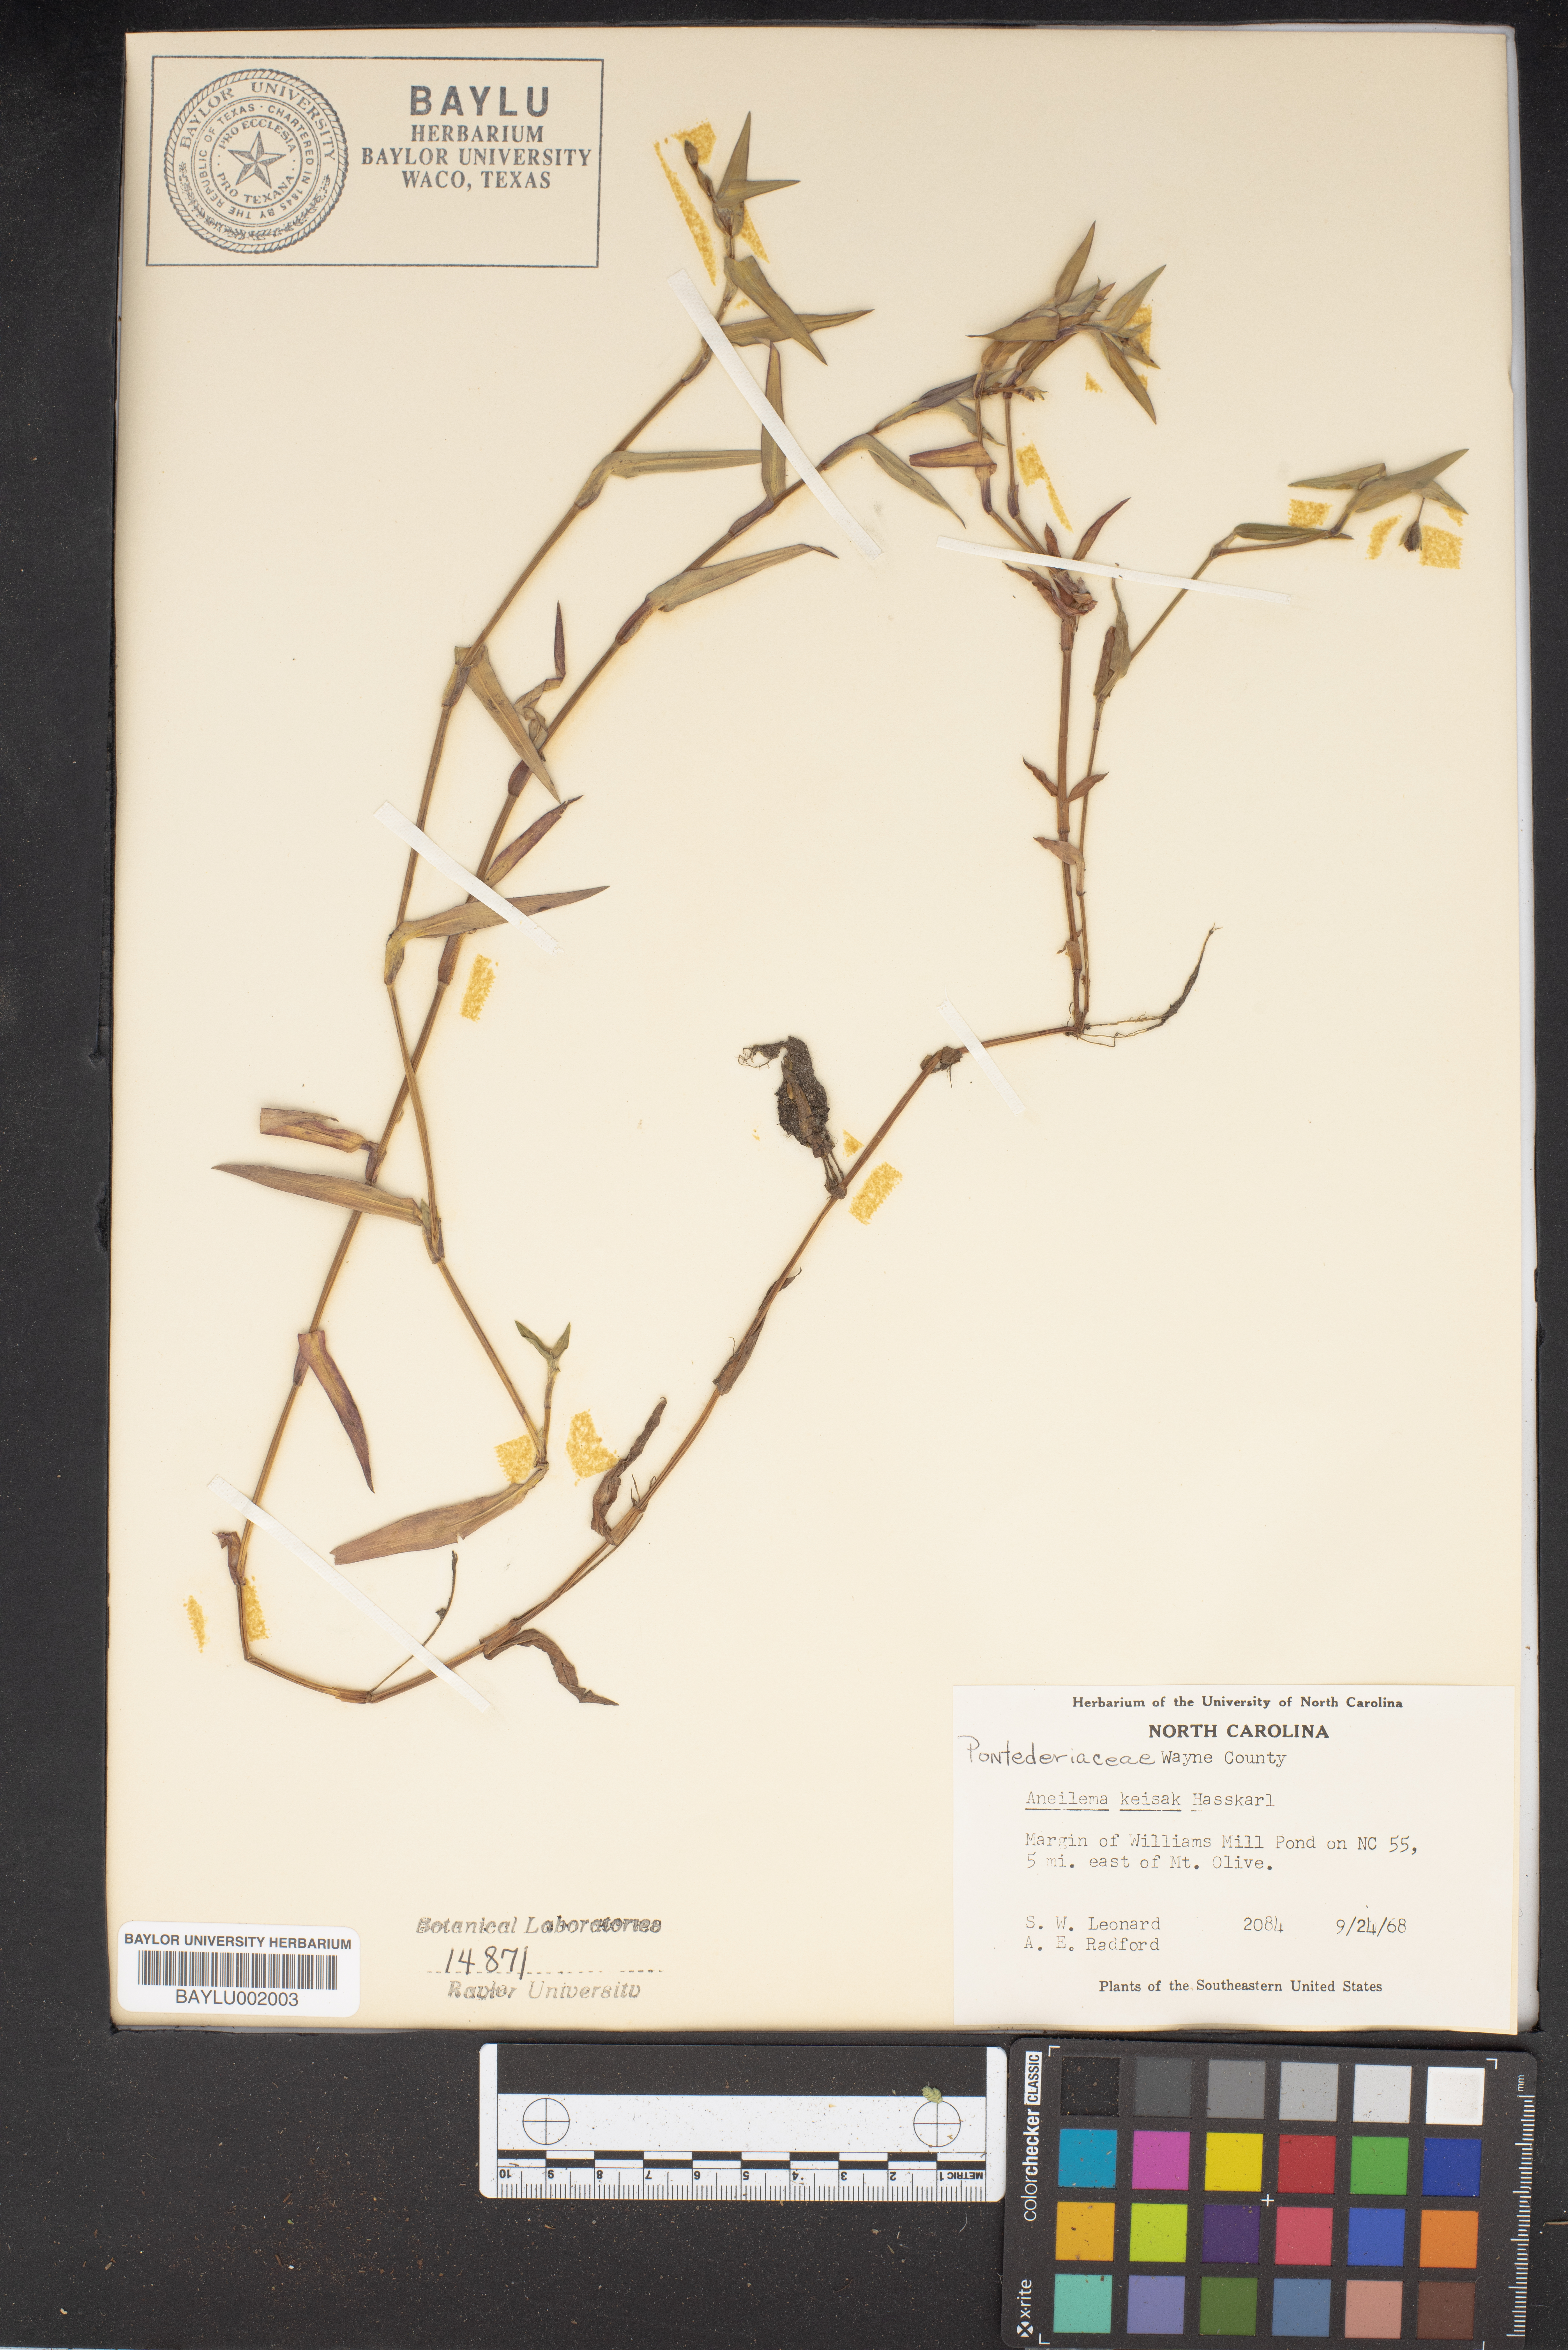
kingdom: Plantae
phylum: Tracheophyta
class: Liliopsida
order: Commelinales
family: Commelinaceae
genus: Murdannia
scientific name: Murdannia keisak
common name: Wartremoving herb
